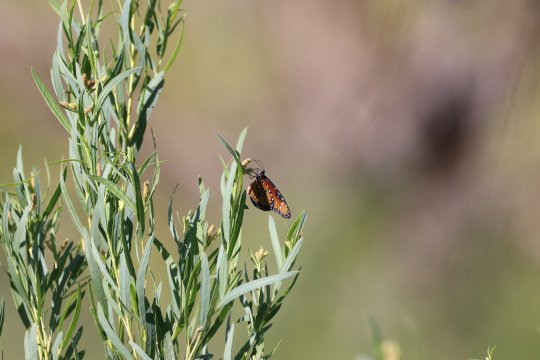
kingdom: Animalia
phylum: Arthropoda
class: Insecta
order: Lepidoptera
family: Nymphalidae
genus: Danaus
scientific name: Danaus gilippus
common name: Queen
